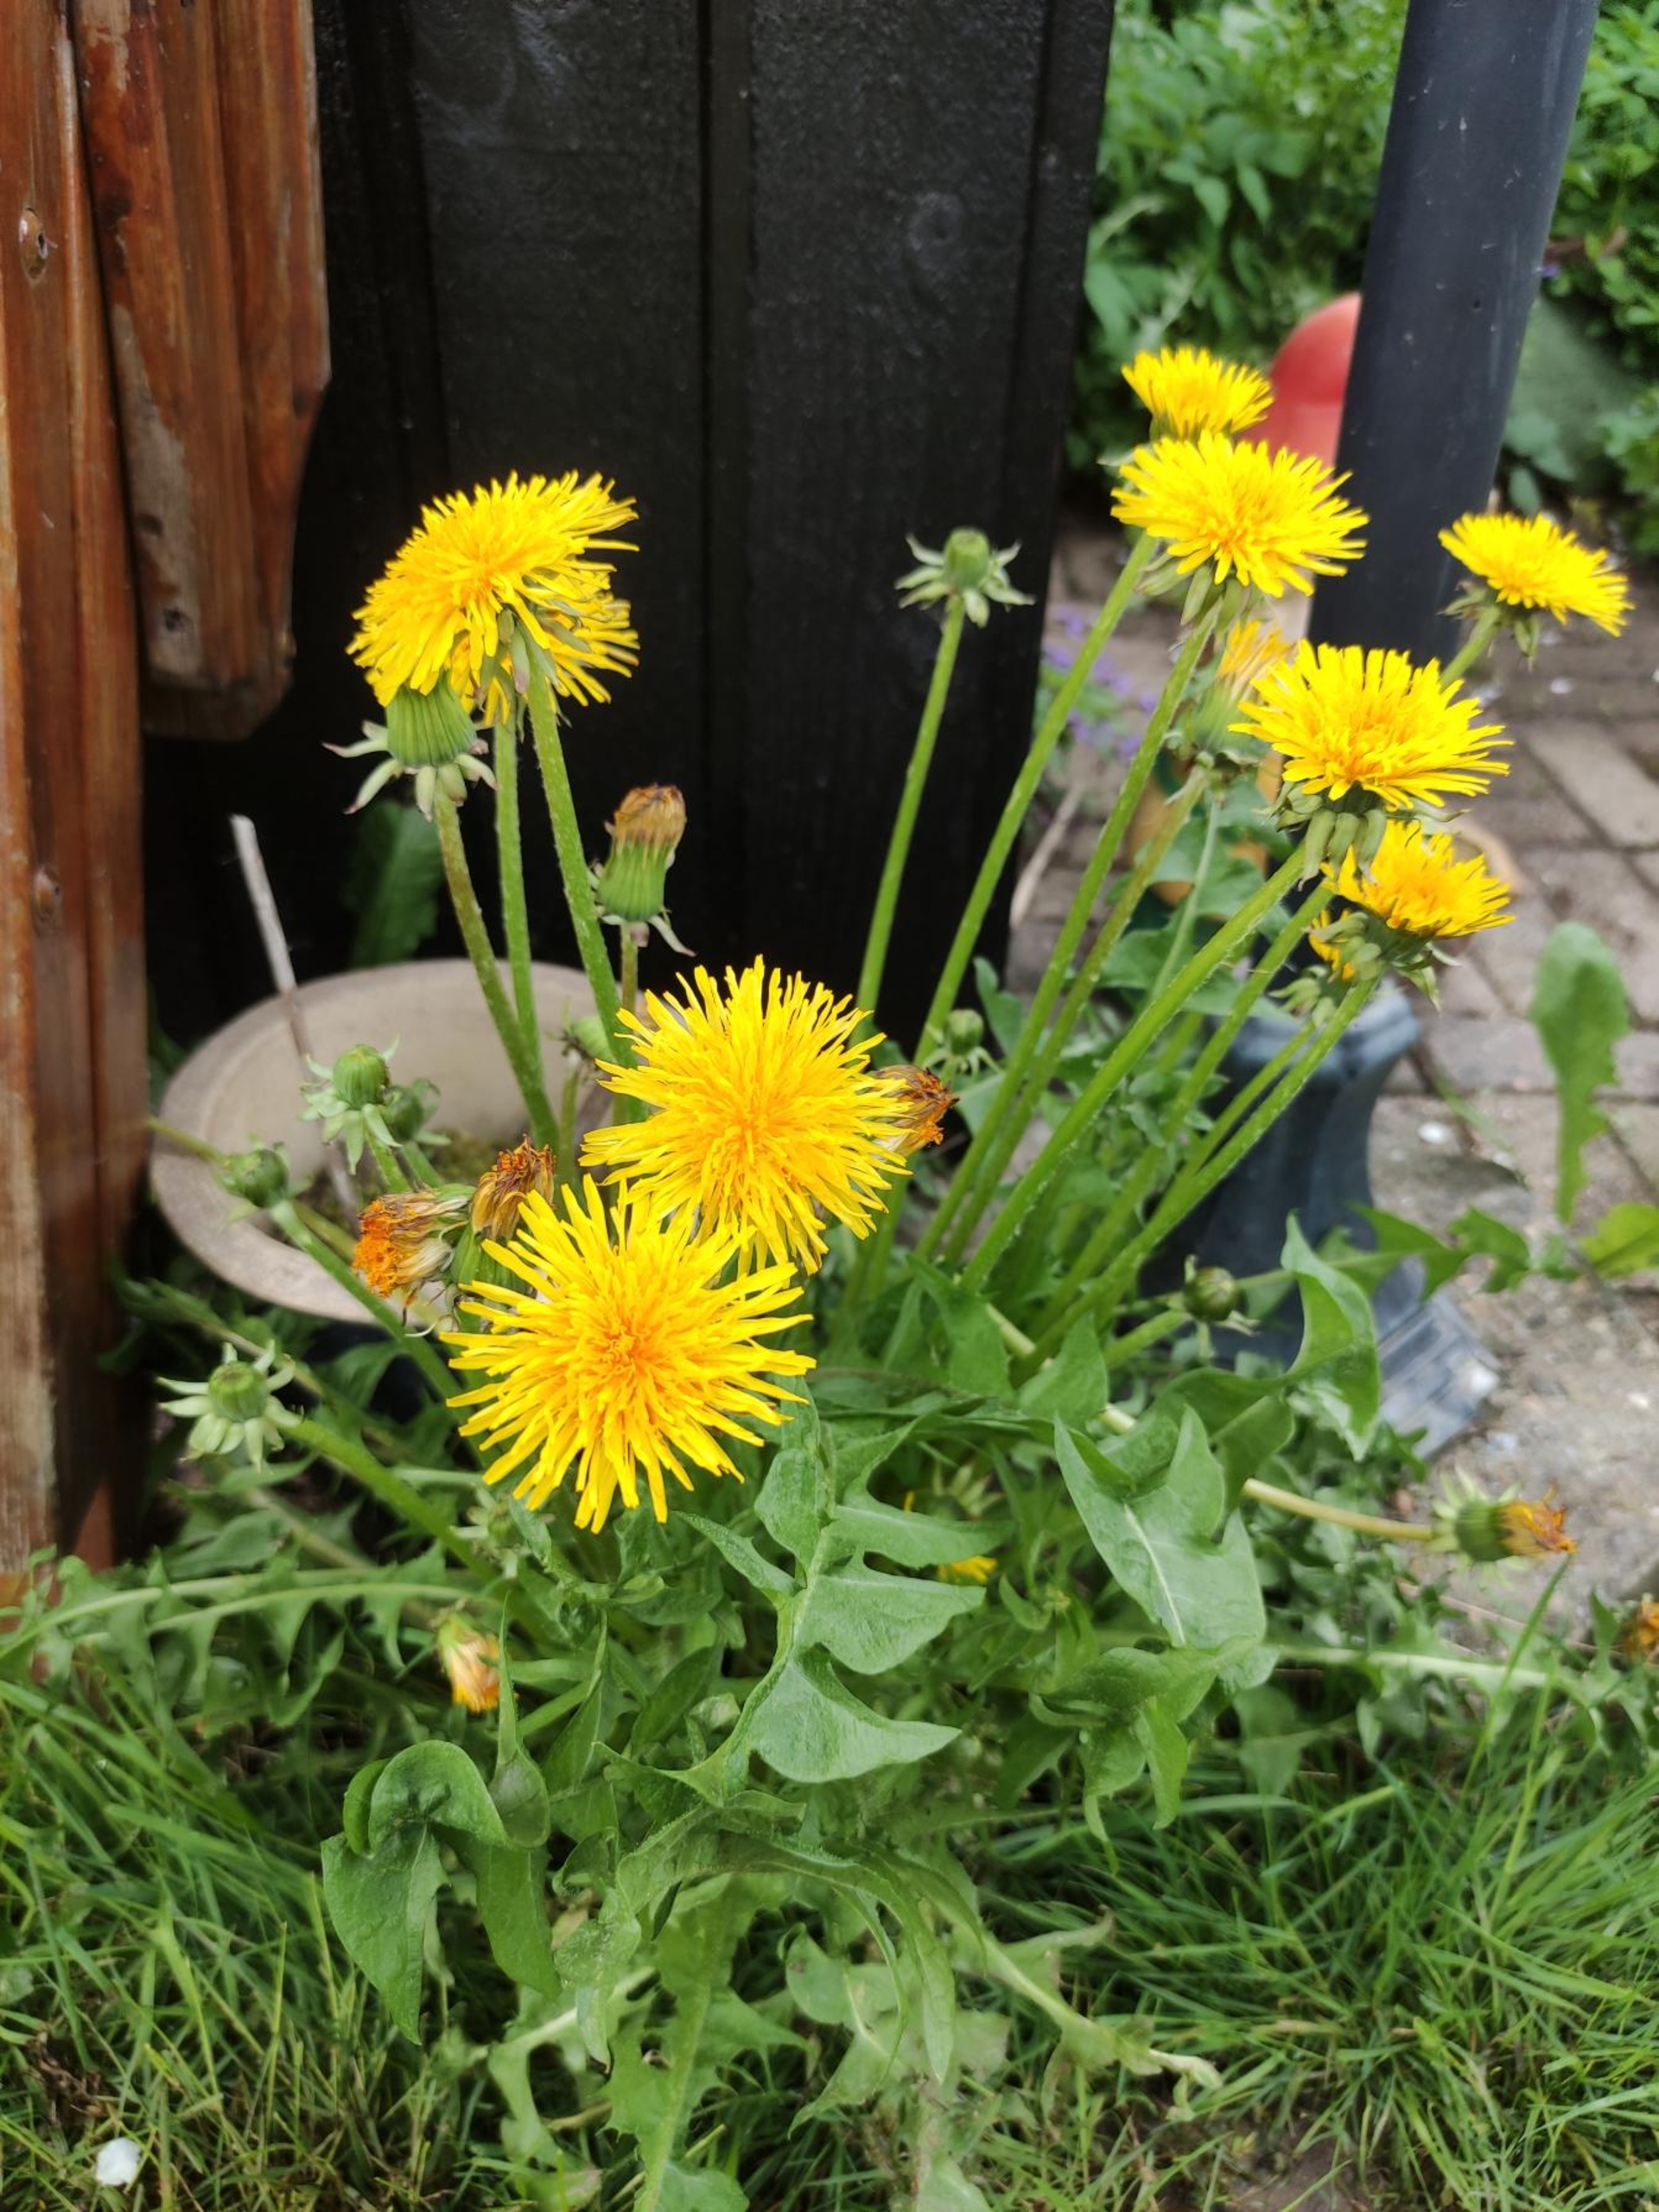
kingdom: Plantae
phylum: Tracheophyta
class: Magnoliopsida
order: Asterales
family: Asteraceae
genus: Taraxacum
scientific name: Taraxacum
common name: Mælkebøtteslægten
